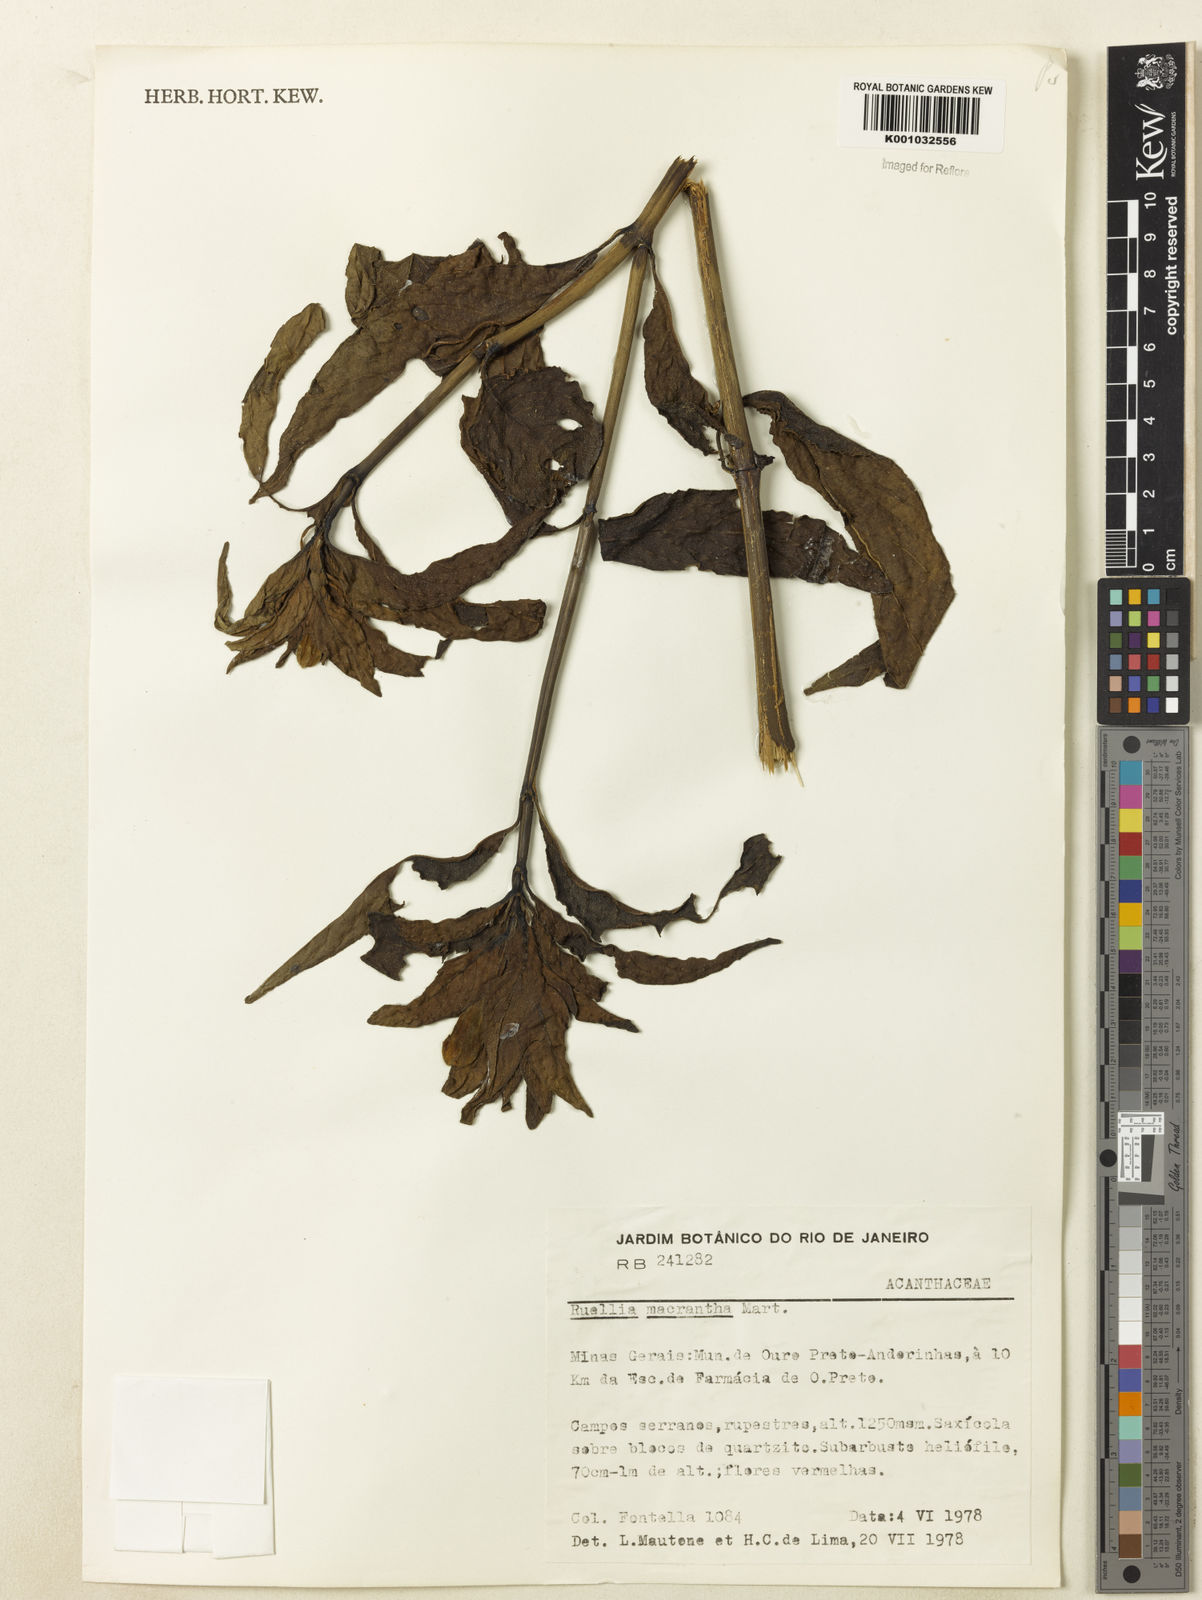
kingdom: Plantae
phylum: Tracheophyta
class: Magnoliopsida
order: Lamiales
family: Acanthaceae
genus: Ruellia
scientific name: Ruellia
